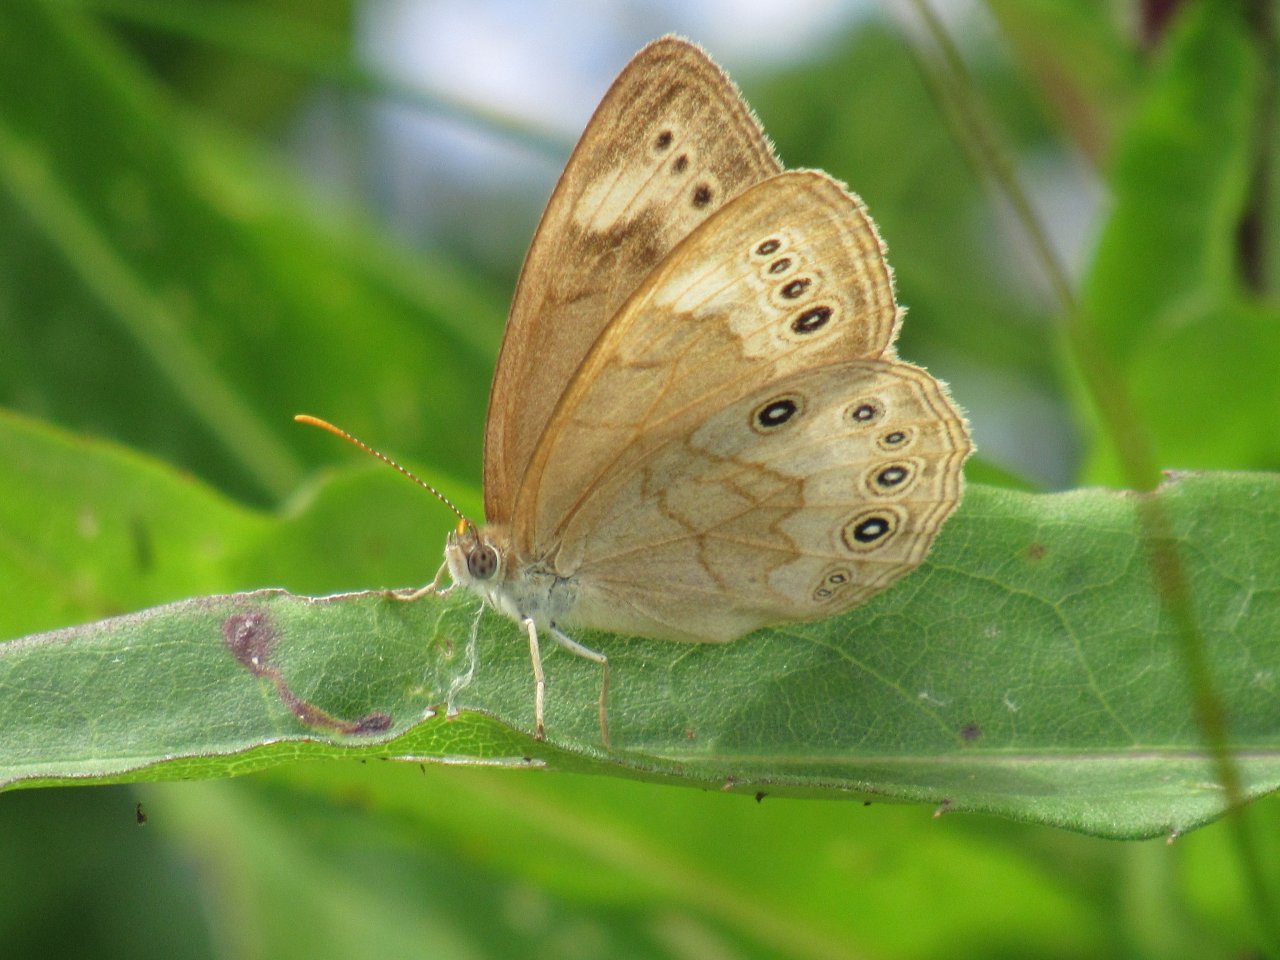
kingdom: Animalia
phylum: Arthropoda
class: Insecta
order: Lepidoptera
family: Nymphalidae
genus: Lethe
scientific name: Lethe eurydice
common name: Eyed Brown
